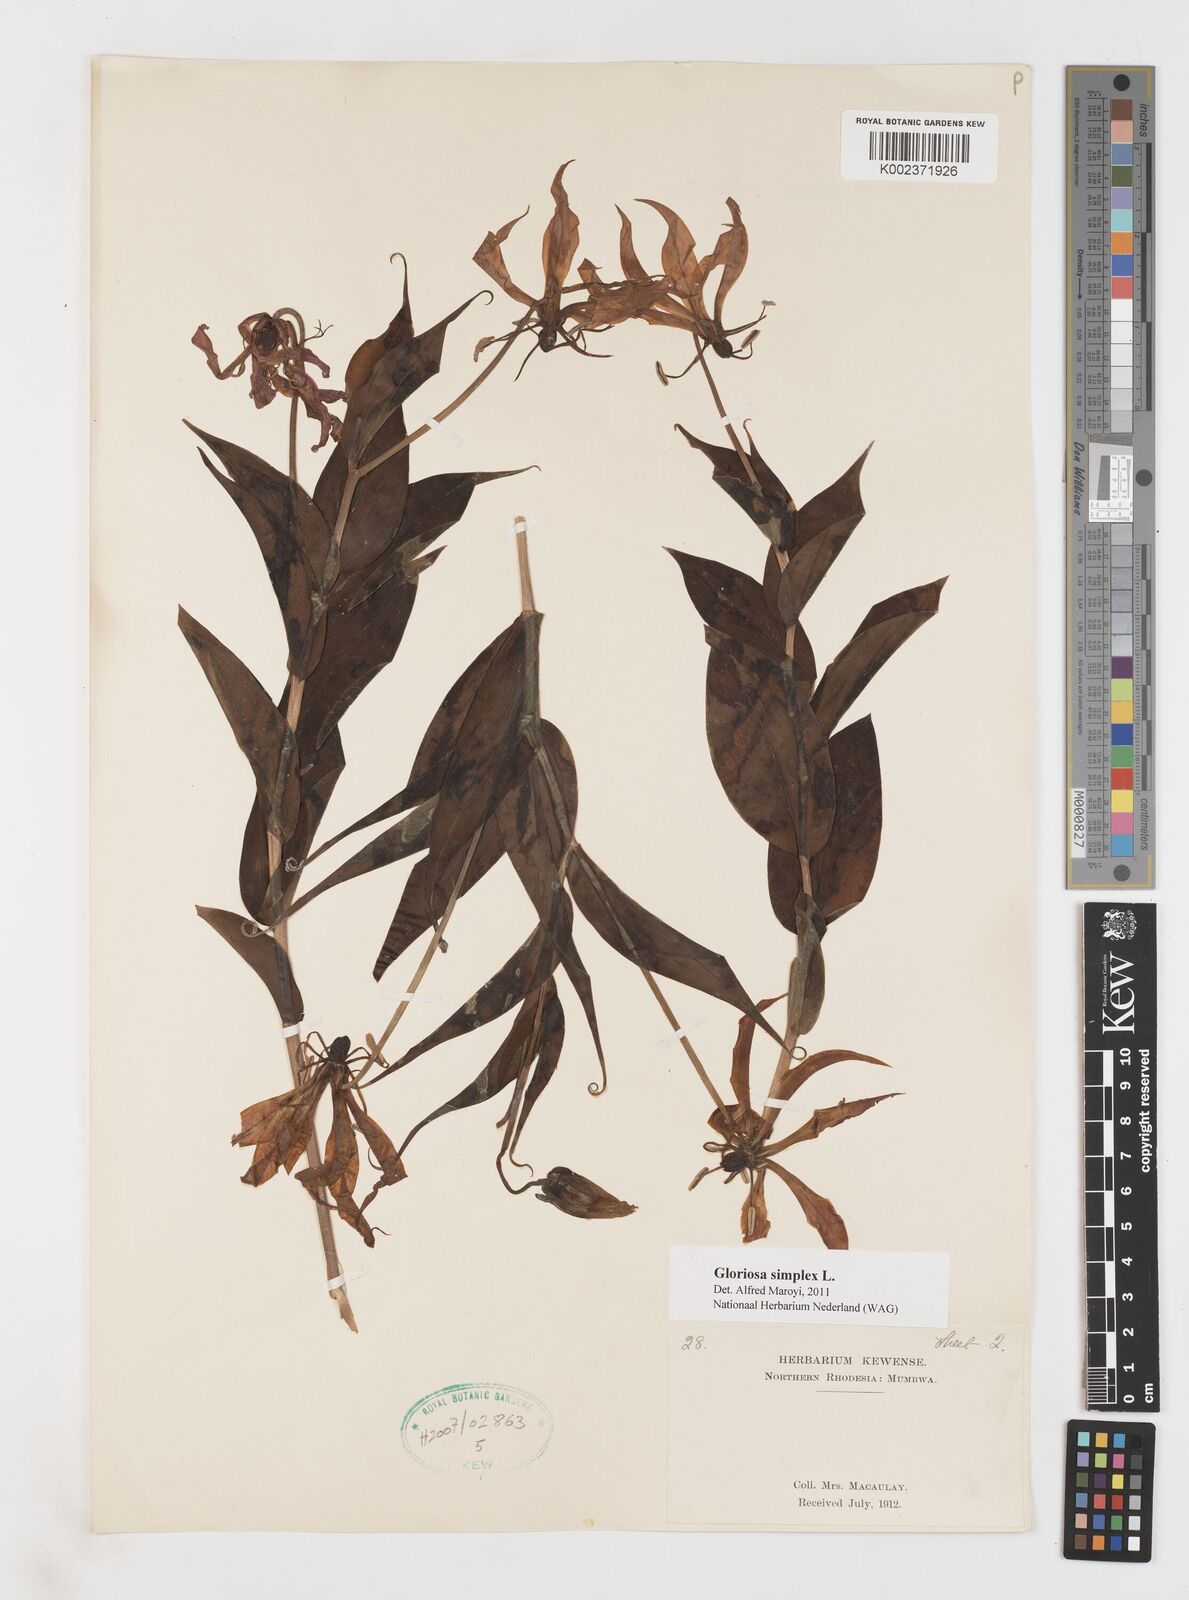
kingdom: Plantae
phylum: Tracheophyta
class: Liliopsida
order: Liliales
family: Colchicaceae
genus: Gloriosa
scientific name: Gloriosa simplex
